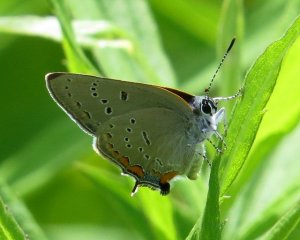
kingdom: Animalia
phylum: Arthropoda
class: Insecta
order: Lepidoptera
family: Lycaenidae
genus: Strymon
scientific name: Strymon acadica
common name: Acadian Hairstreak
